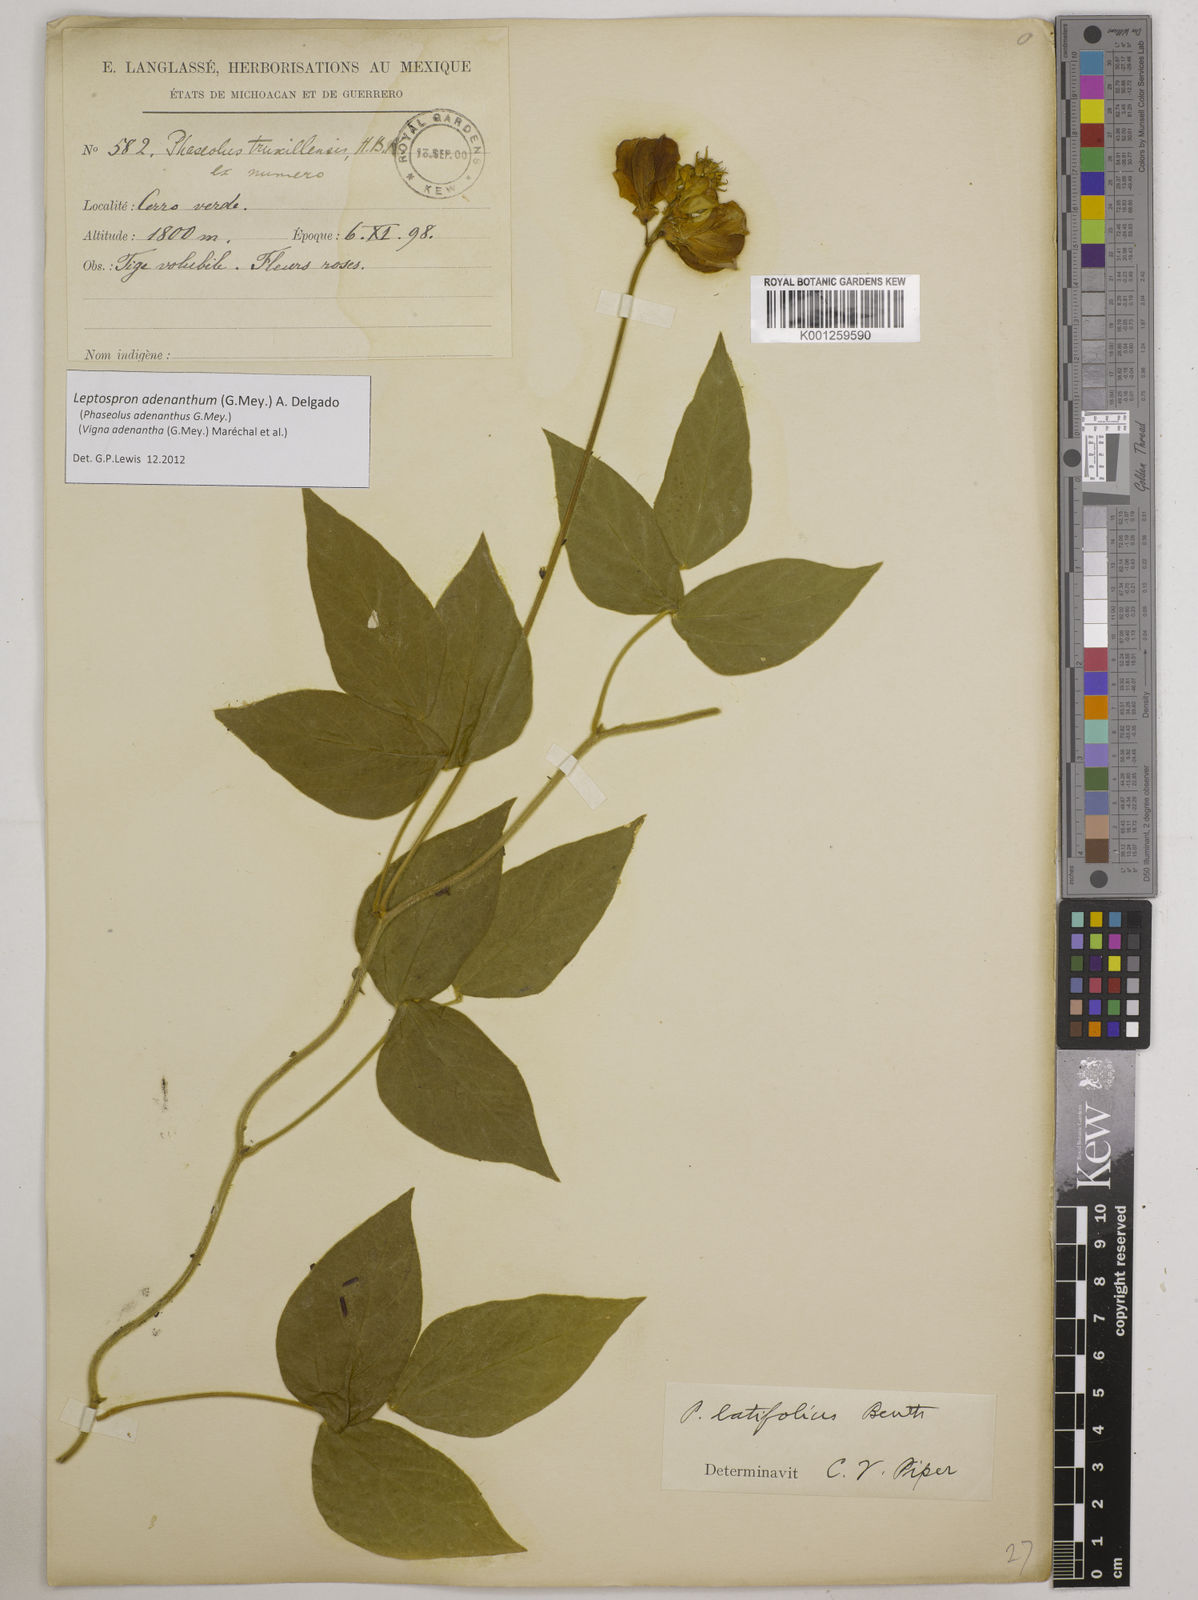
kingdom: Plantae
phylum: Tracheophyta
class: Magnoliopsida
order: Fabales
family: Fabaceae
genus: Leptospron
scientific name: Leptospron adenanthum
